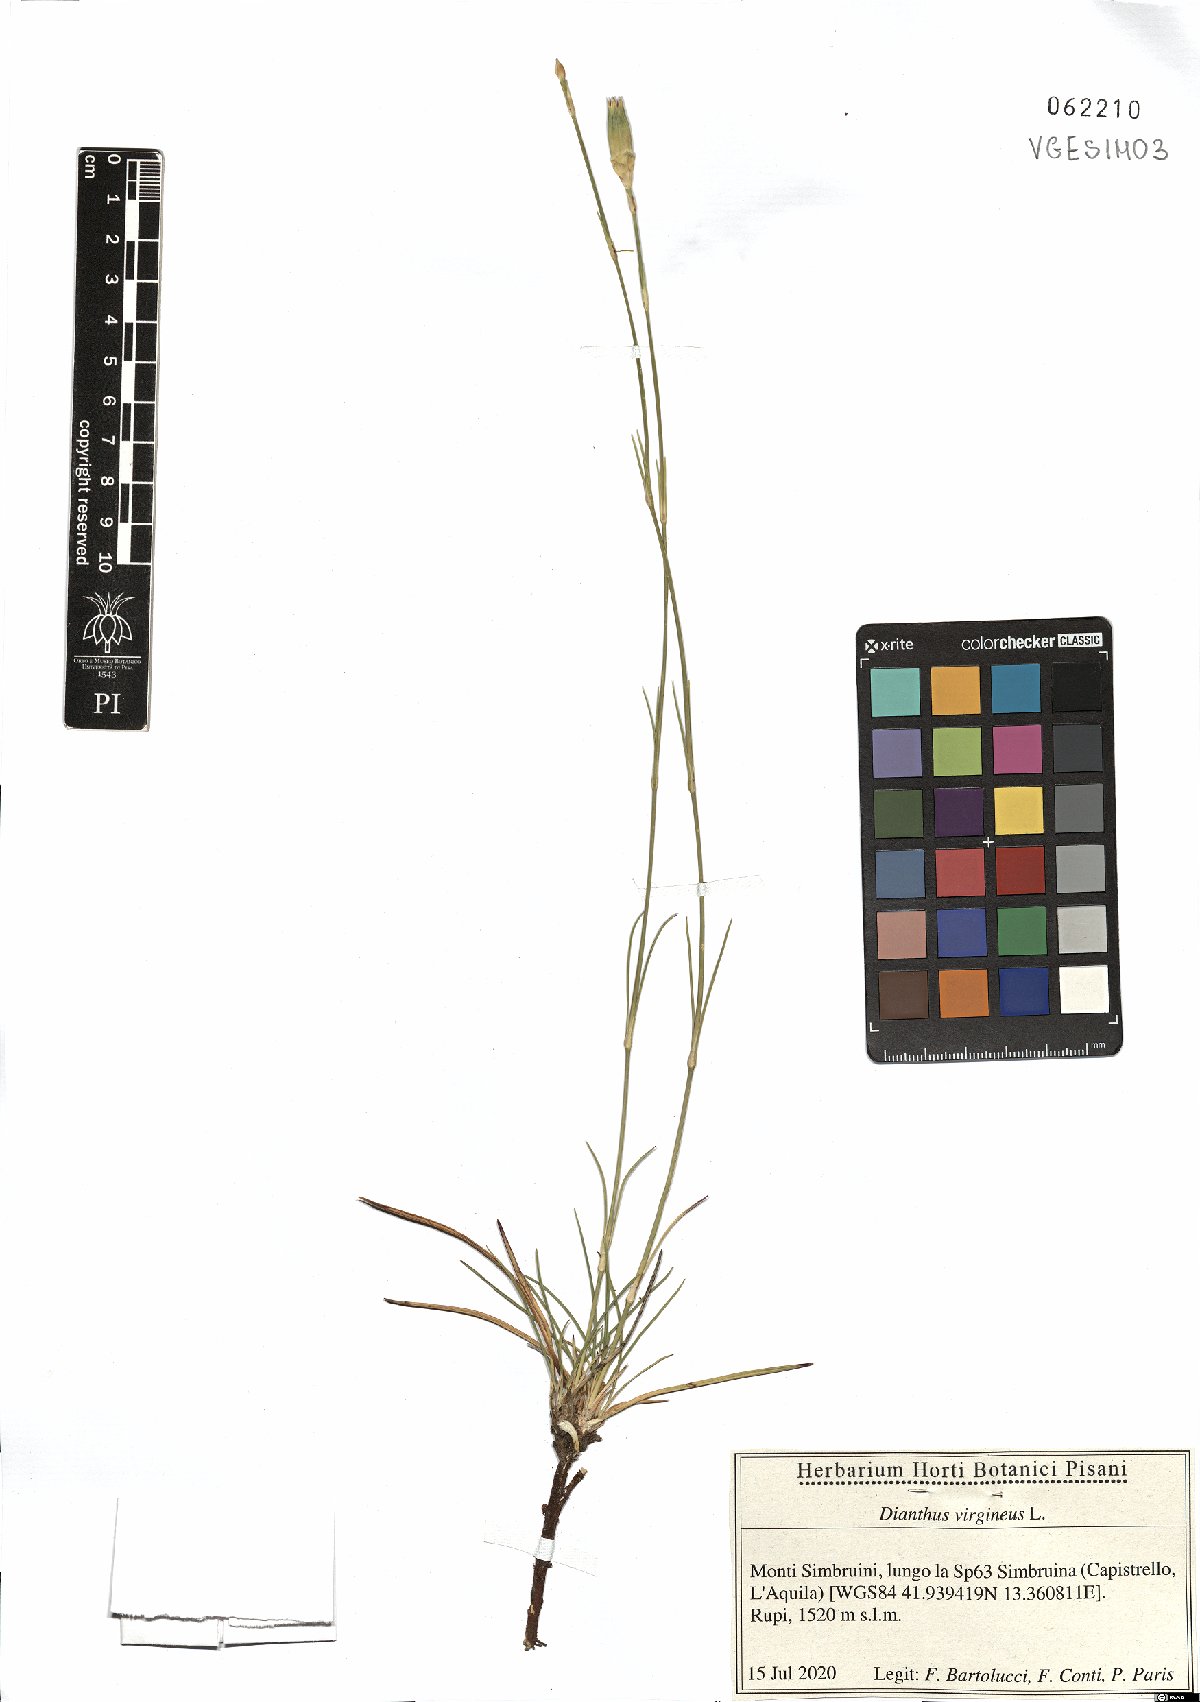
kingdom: Plantae
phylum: Tracheophyta
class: Magnoliopsida
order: Caryophyllales
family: Caryophyllaceae
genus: Dianthus
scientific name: Dianthus virgineus
